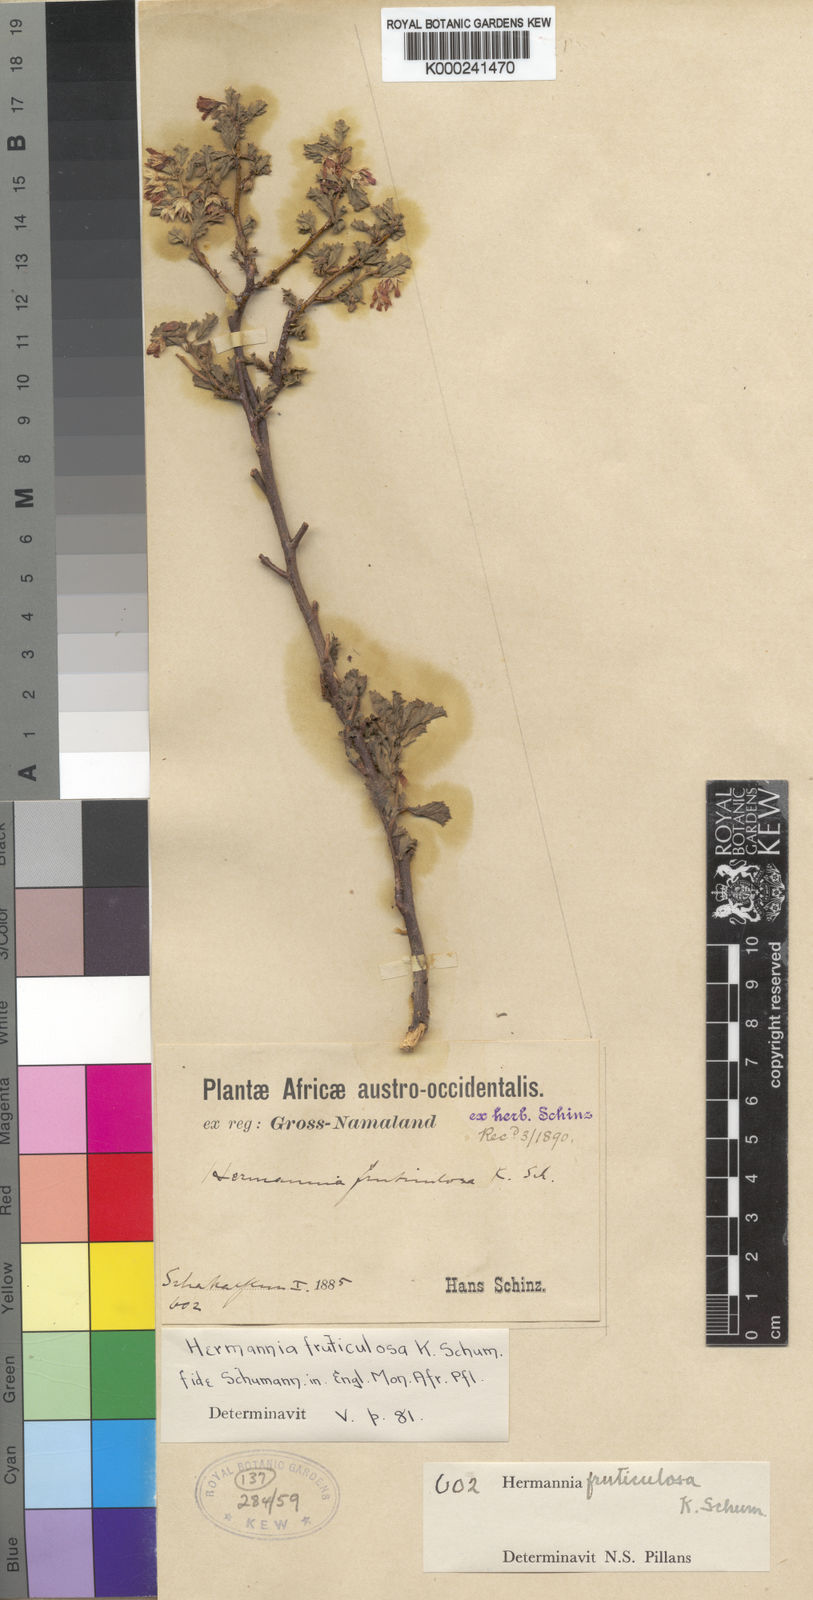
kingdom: Plantae
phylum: Tracheophyta
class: Magnoliopsida
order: Malvales
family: Malvaceae
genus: Hermannia
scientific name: Hermannia fruticulosa
